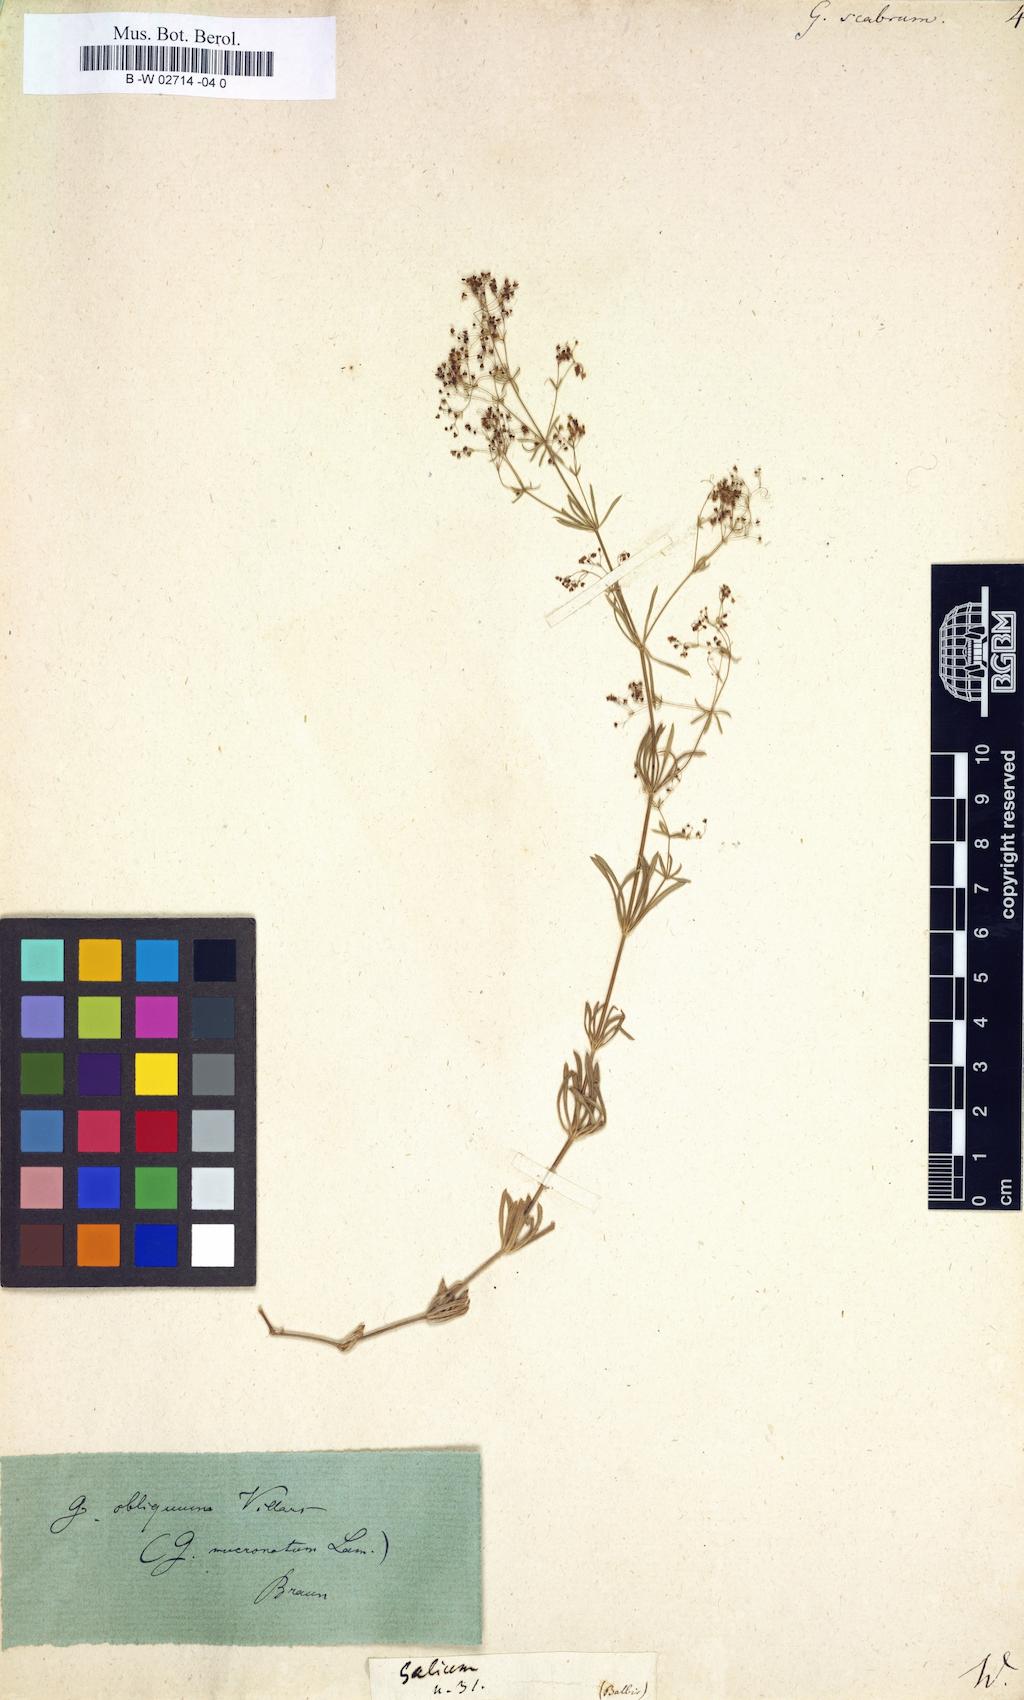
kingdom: Plantae
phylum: Tracheophyta
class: Magnoliopsida
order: Gentianales
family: Rubiaceae
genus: Galium
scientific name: Galium scabrum
